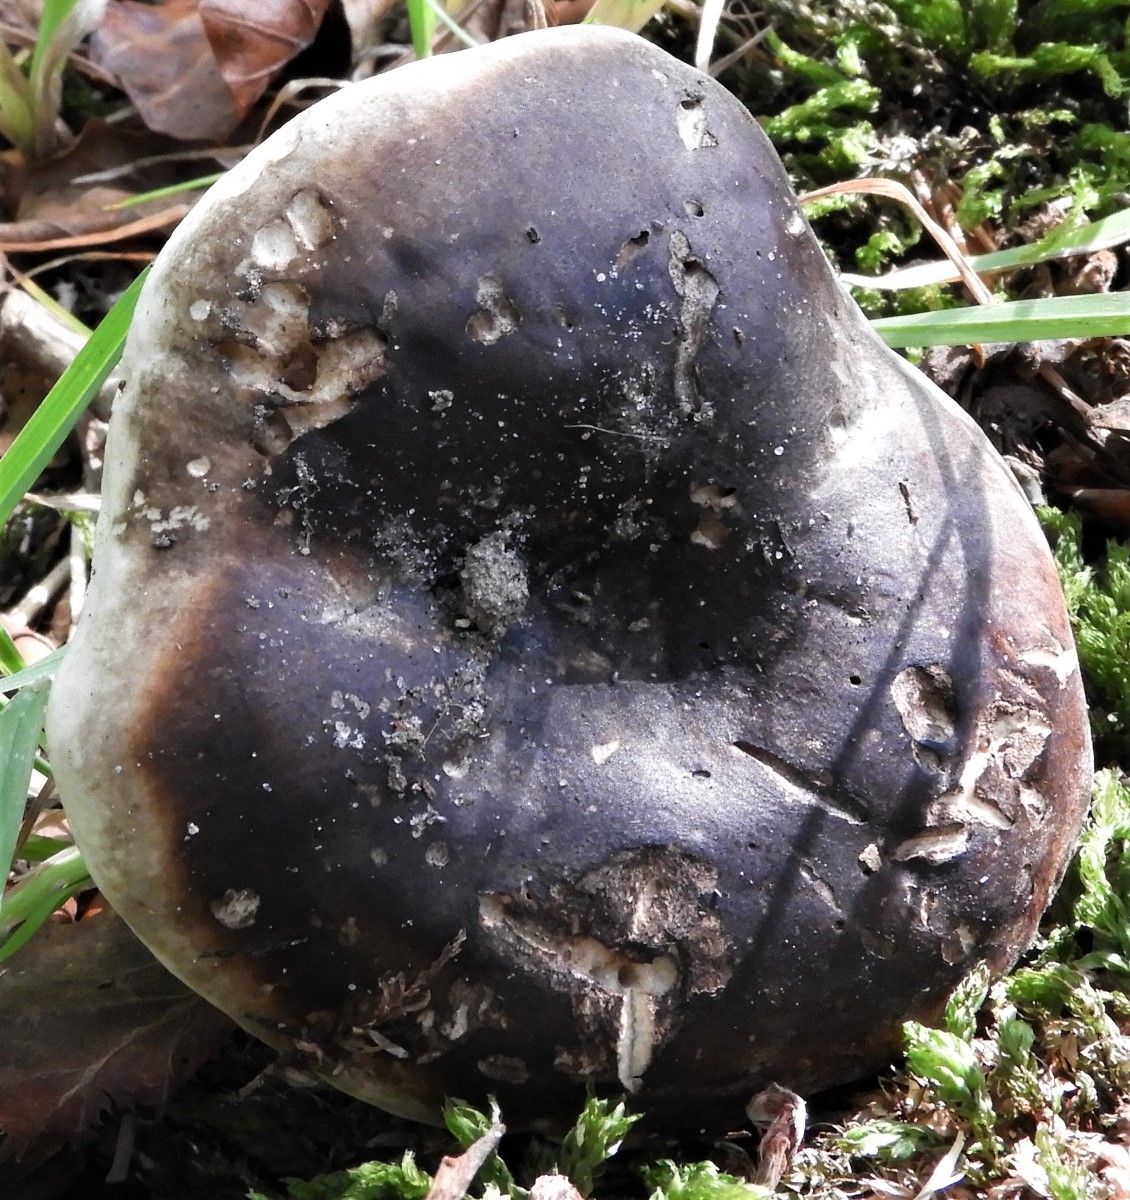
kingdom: Fungi
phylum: Basidiomycota
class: Agaricomycetes
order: Russulales
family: Russulaceae
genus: Russula
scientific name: Russula adusta
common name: sværtende skørhat
